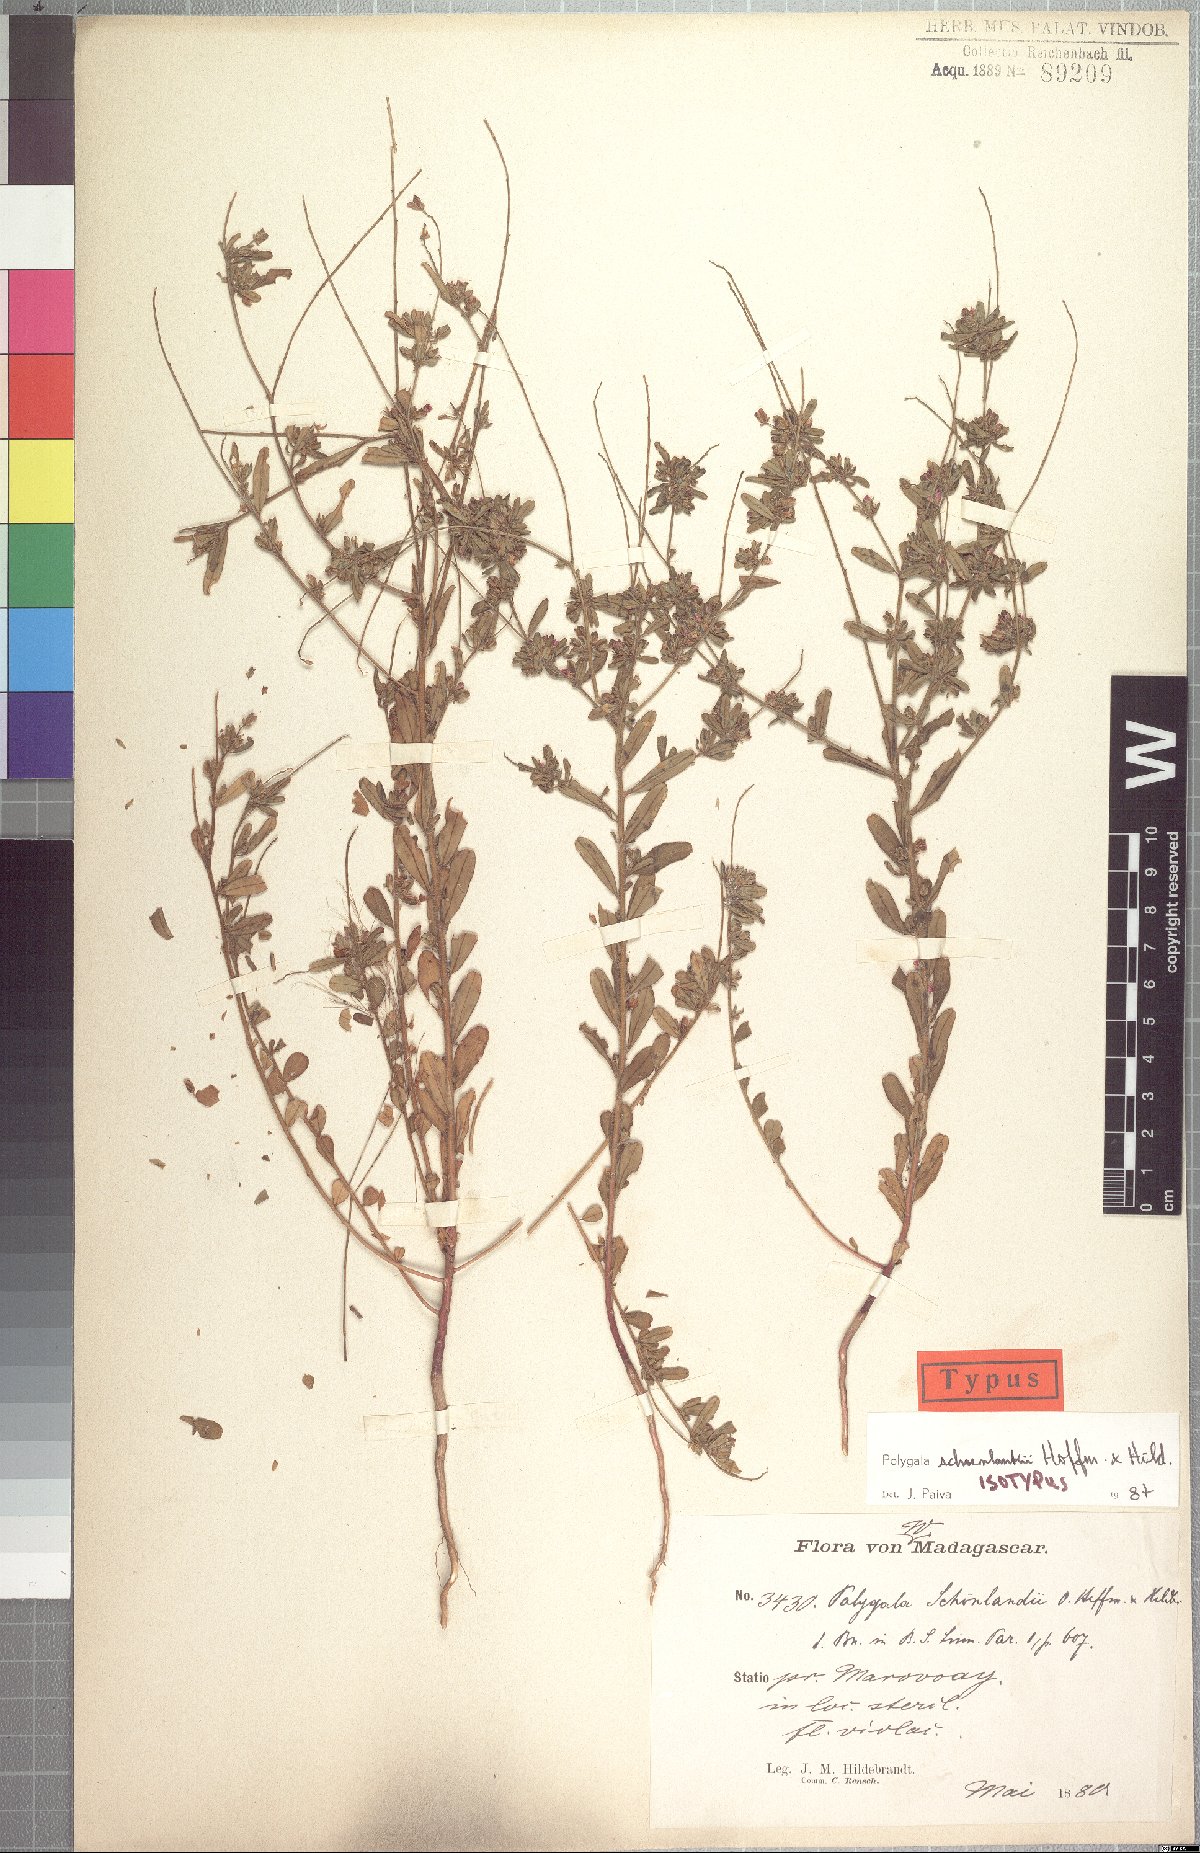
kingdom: Plantae
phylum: Tracheophyta
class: Magnoliopsida
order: Fabales
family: Polygalaceae
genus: Polygala
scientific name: Polygala schoenlankii
